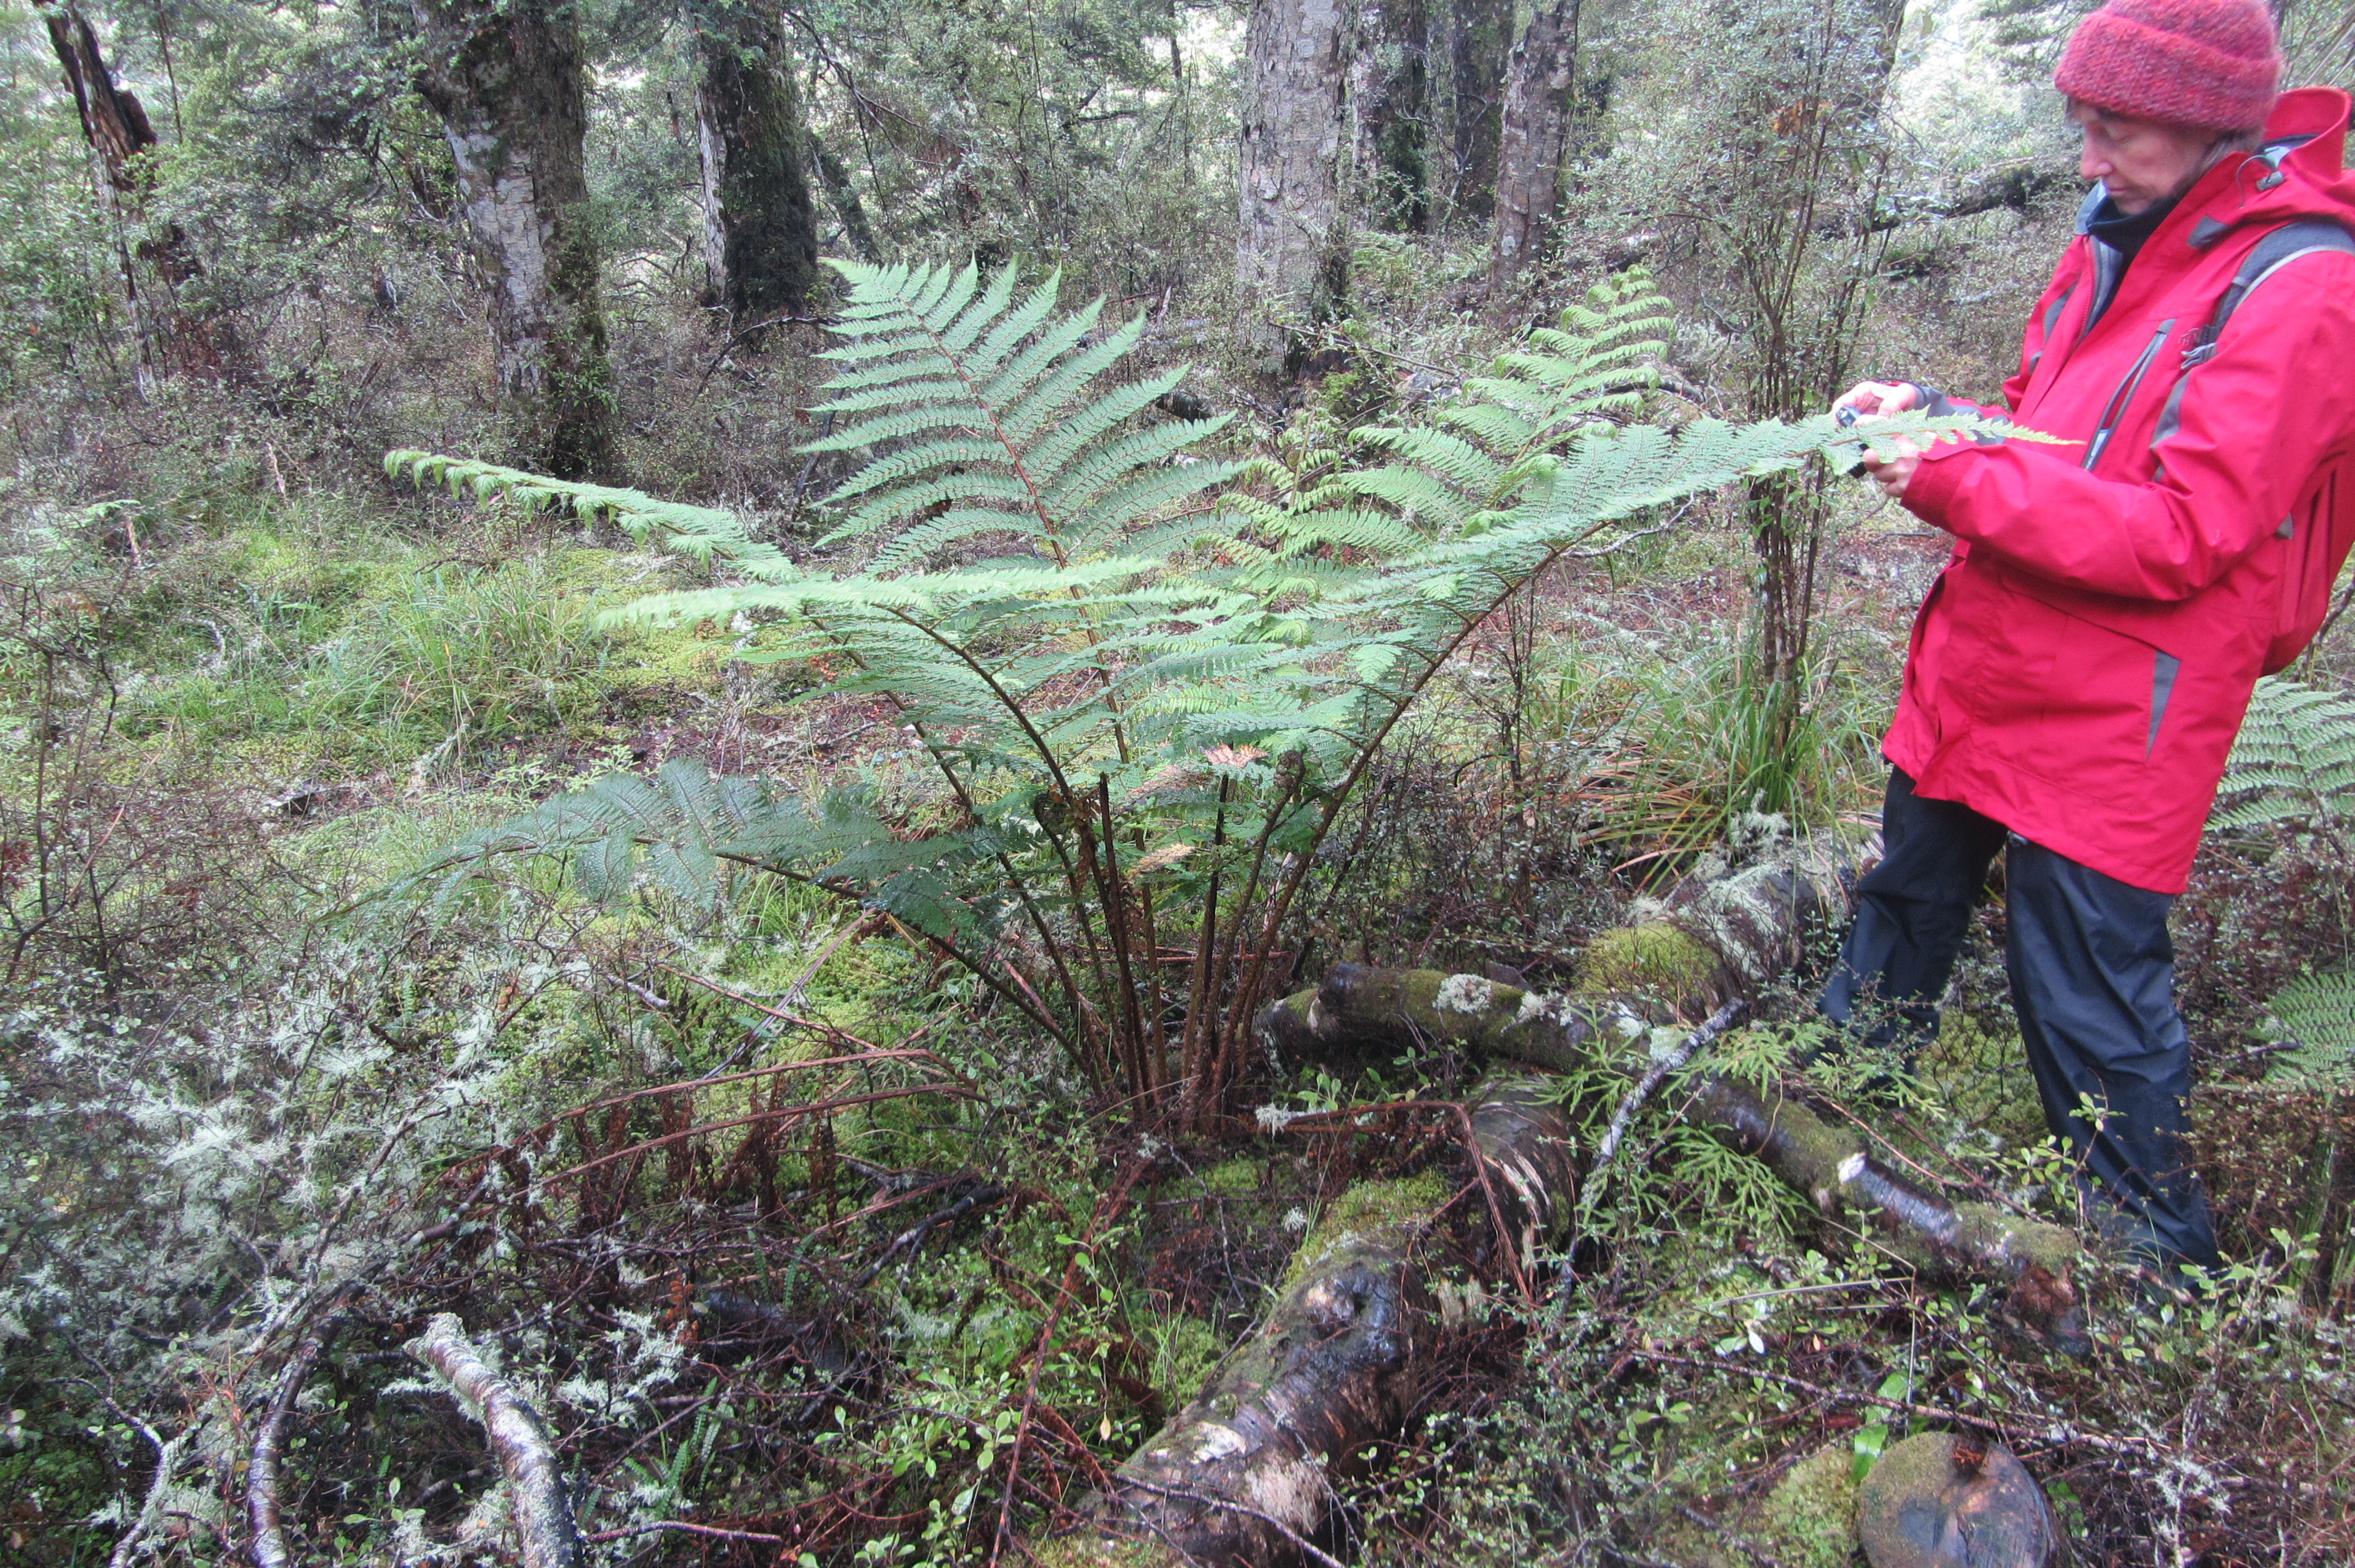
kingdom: Plantae
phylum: Tracheophyta
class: Magnoliopsida
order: Fabales
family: Fabaceae
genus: Lupinus
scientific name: Lupinus polyphyllus
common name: Garden lupin
